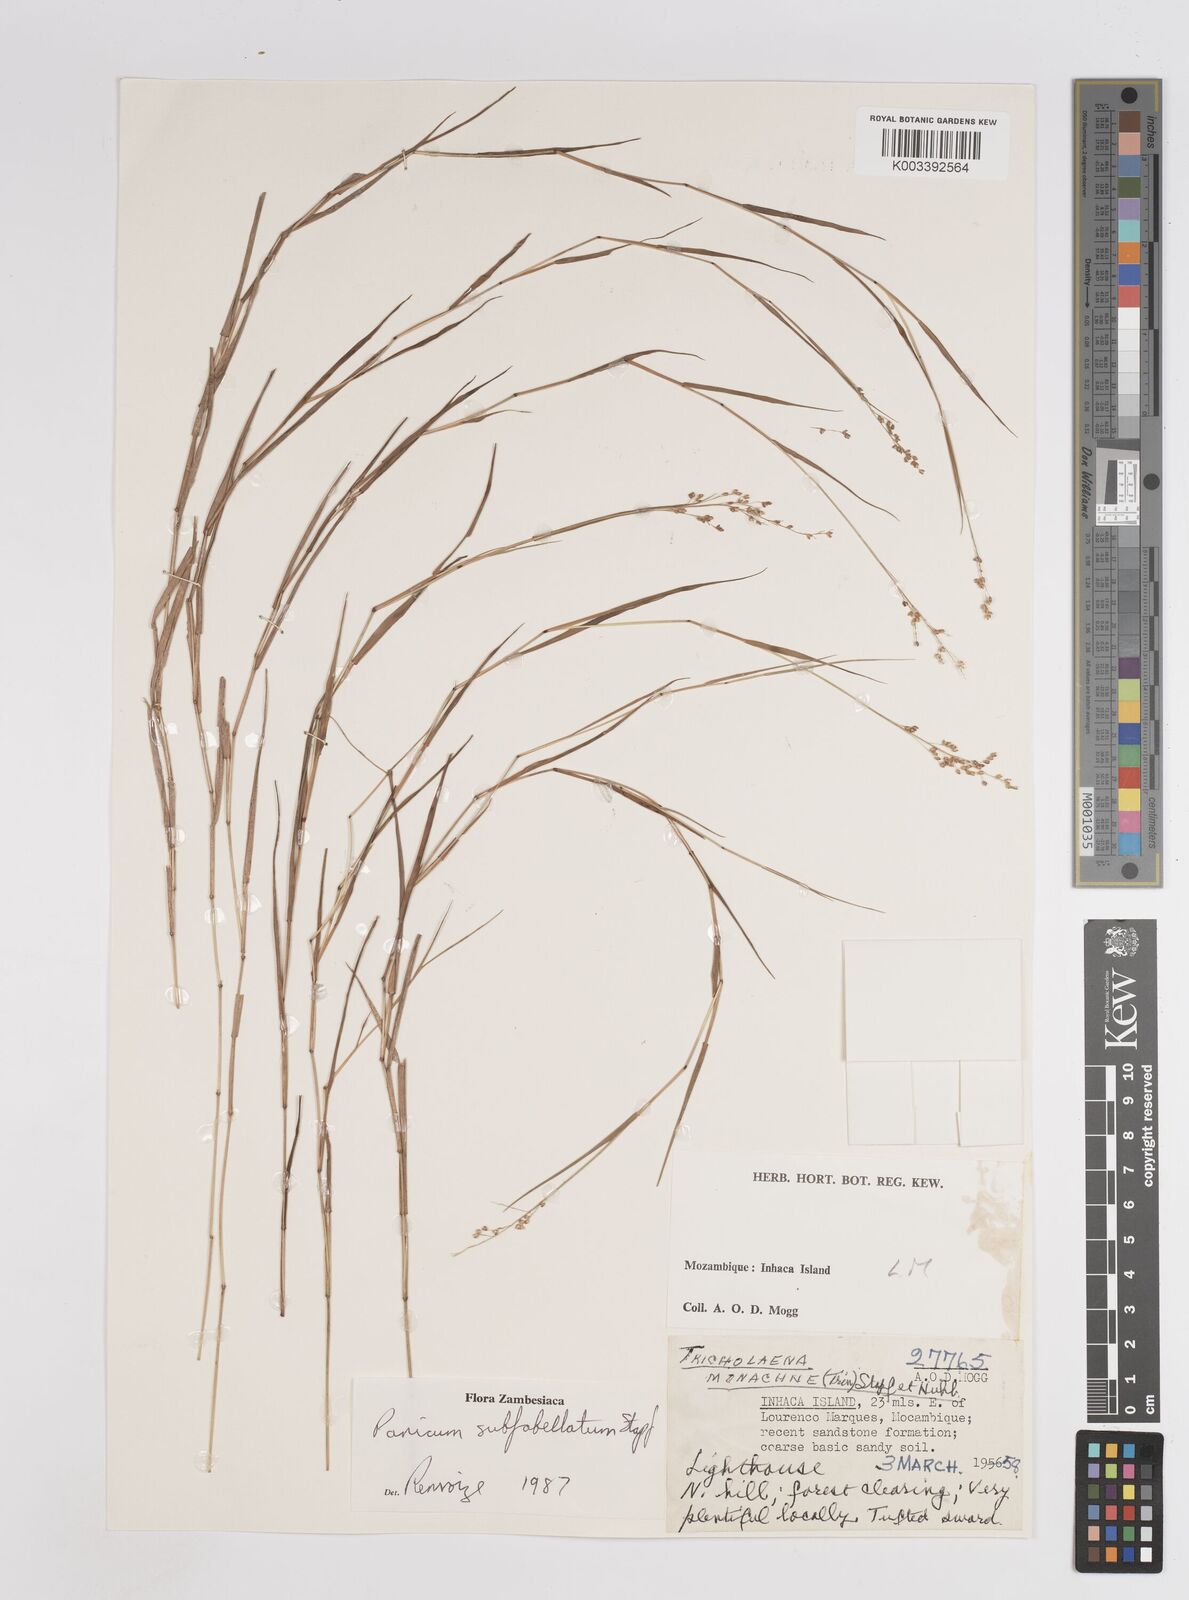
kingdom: Plantae
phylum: Tracheophyta
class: Liliopsida
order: Poales
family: Poaceae
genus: Panicum
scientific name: Panicum subflabellatum
